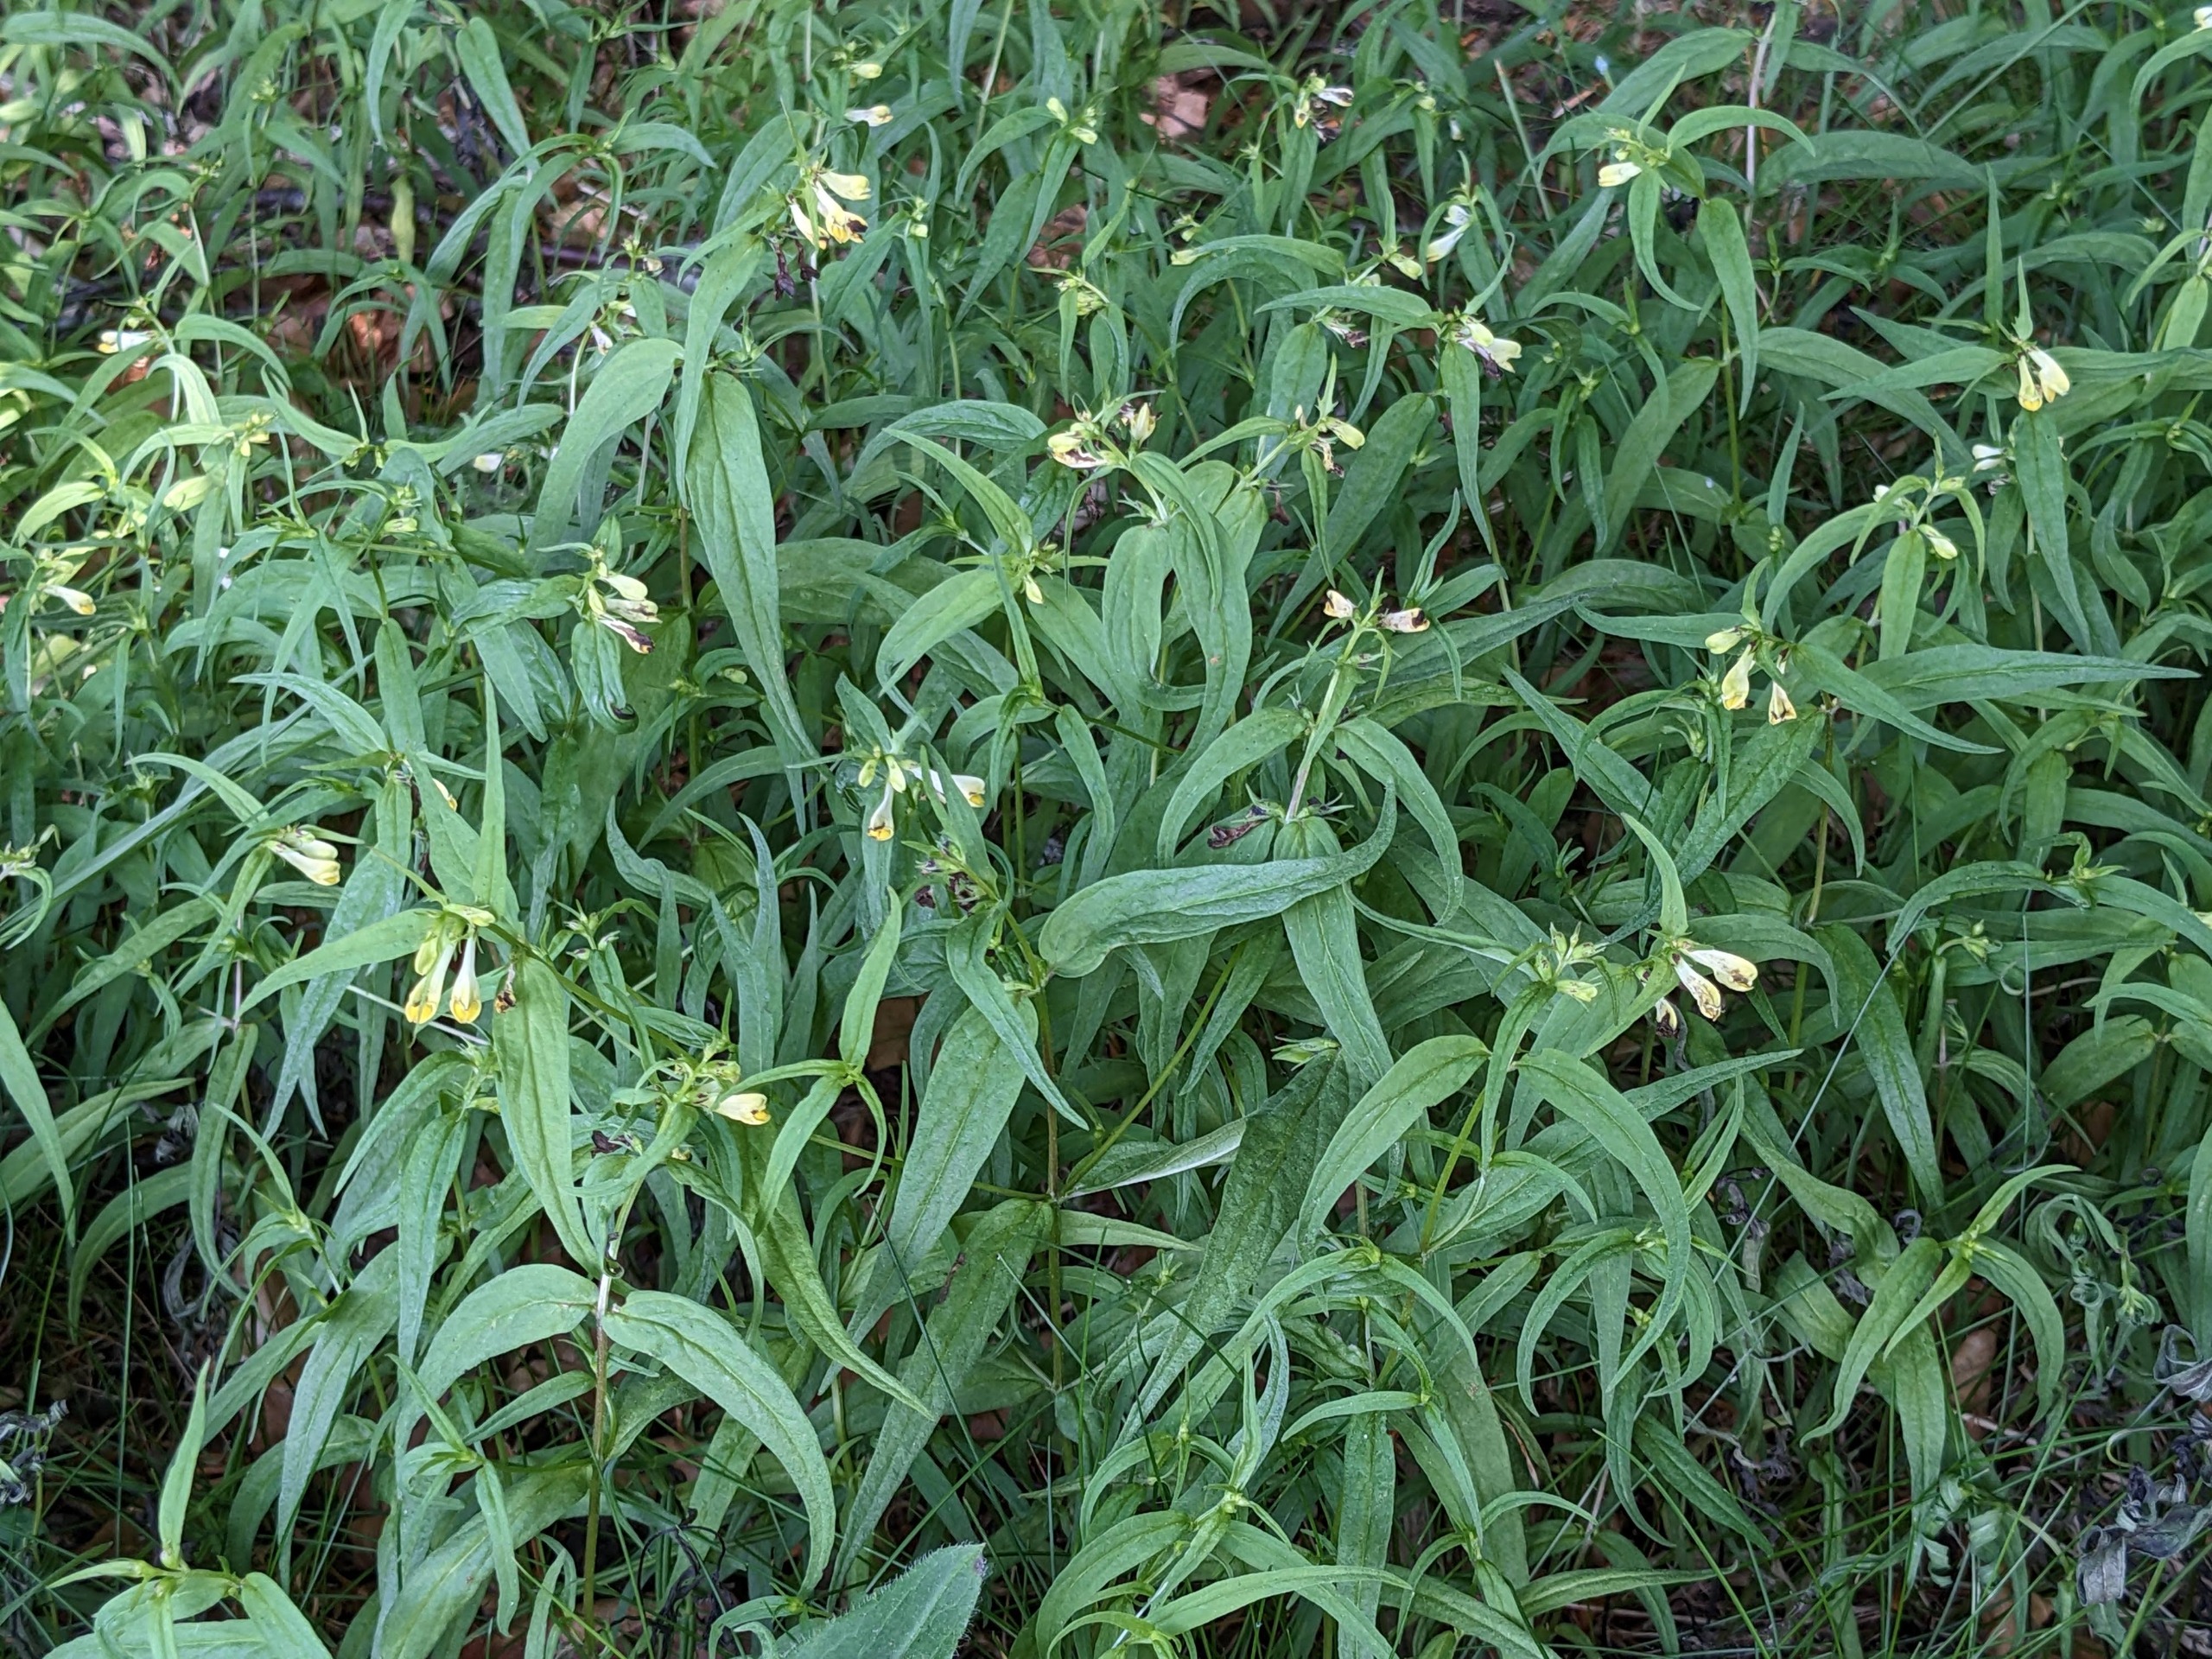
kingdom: Plantae
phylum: Tracheophyta
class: Magnoliopsida
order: Lamiales
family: Orobanchaceae
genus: Melampyrum
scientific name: Melampyrum pratense
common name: Almindelig kohvede
